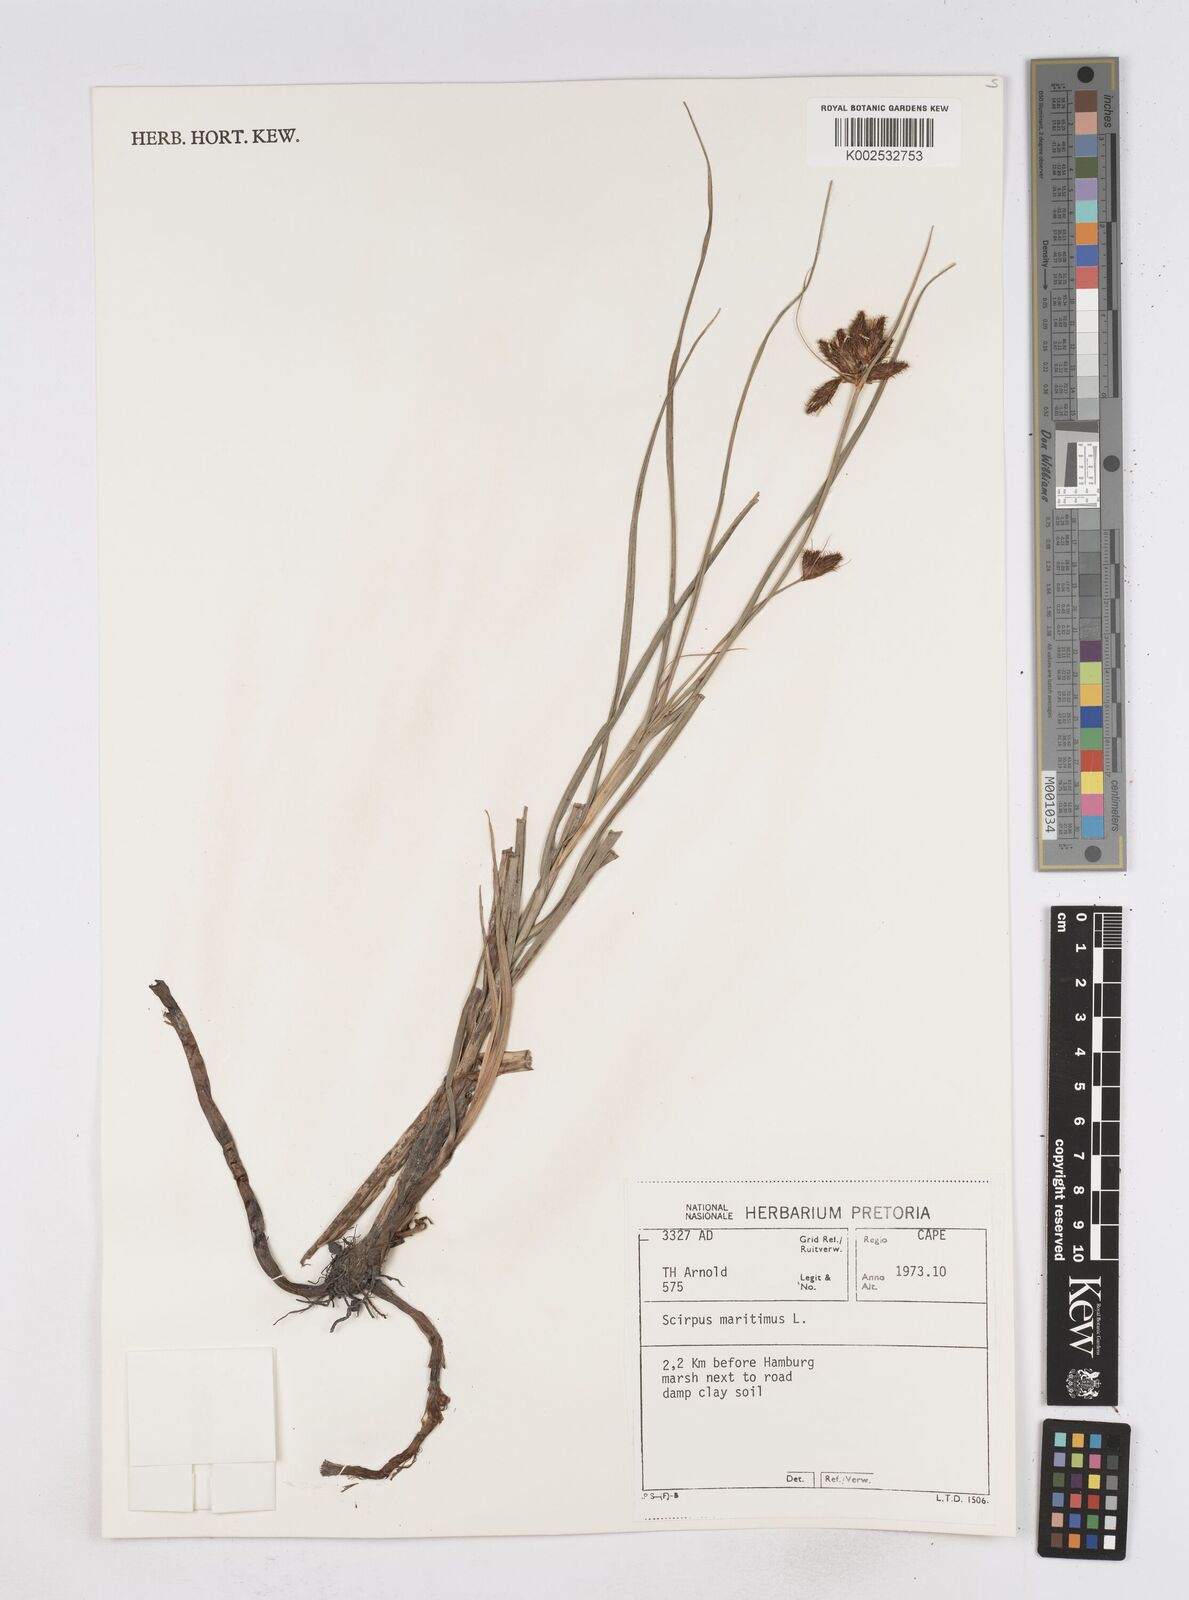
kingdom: Plantae
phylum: Tracheophyta
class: Liliopsida
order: Poales
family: Cyperaceae
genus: Bolboschoenus
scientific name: Bolboschoenus maritimus
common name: Sea club-rush
